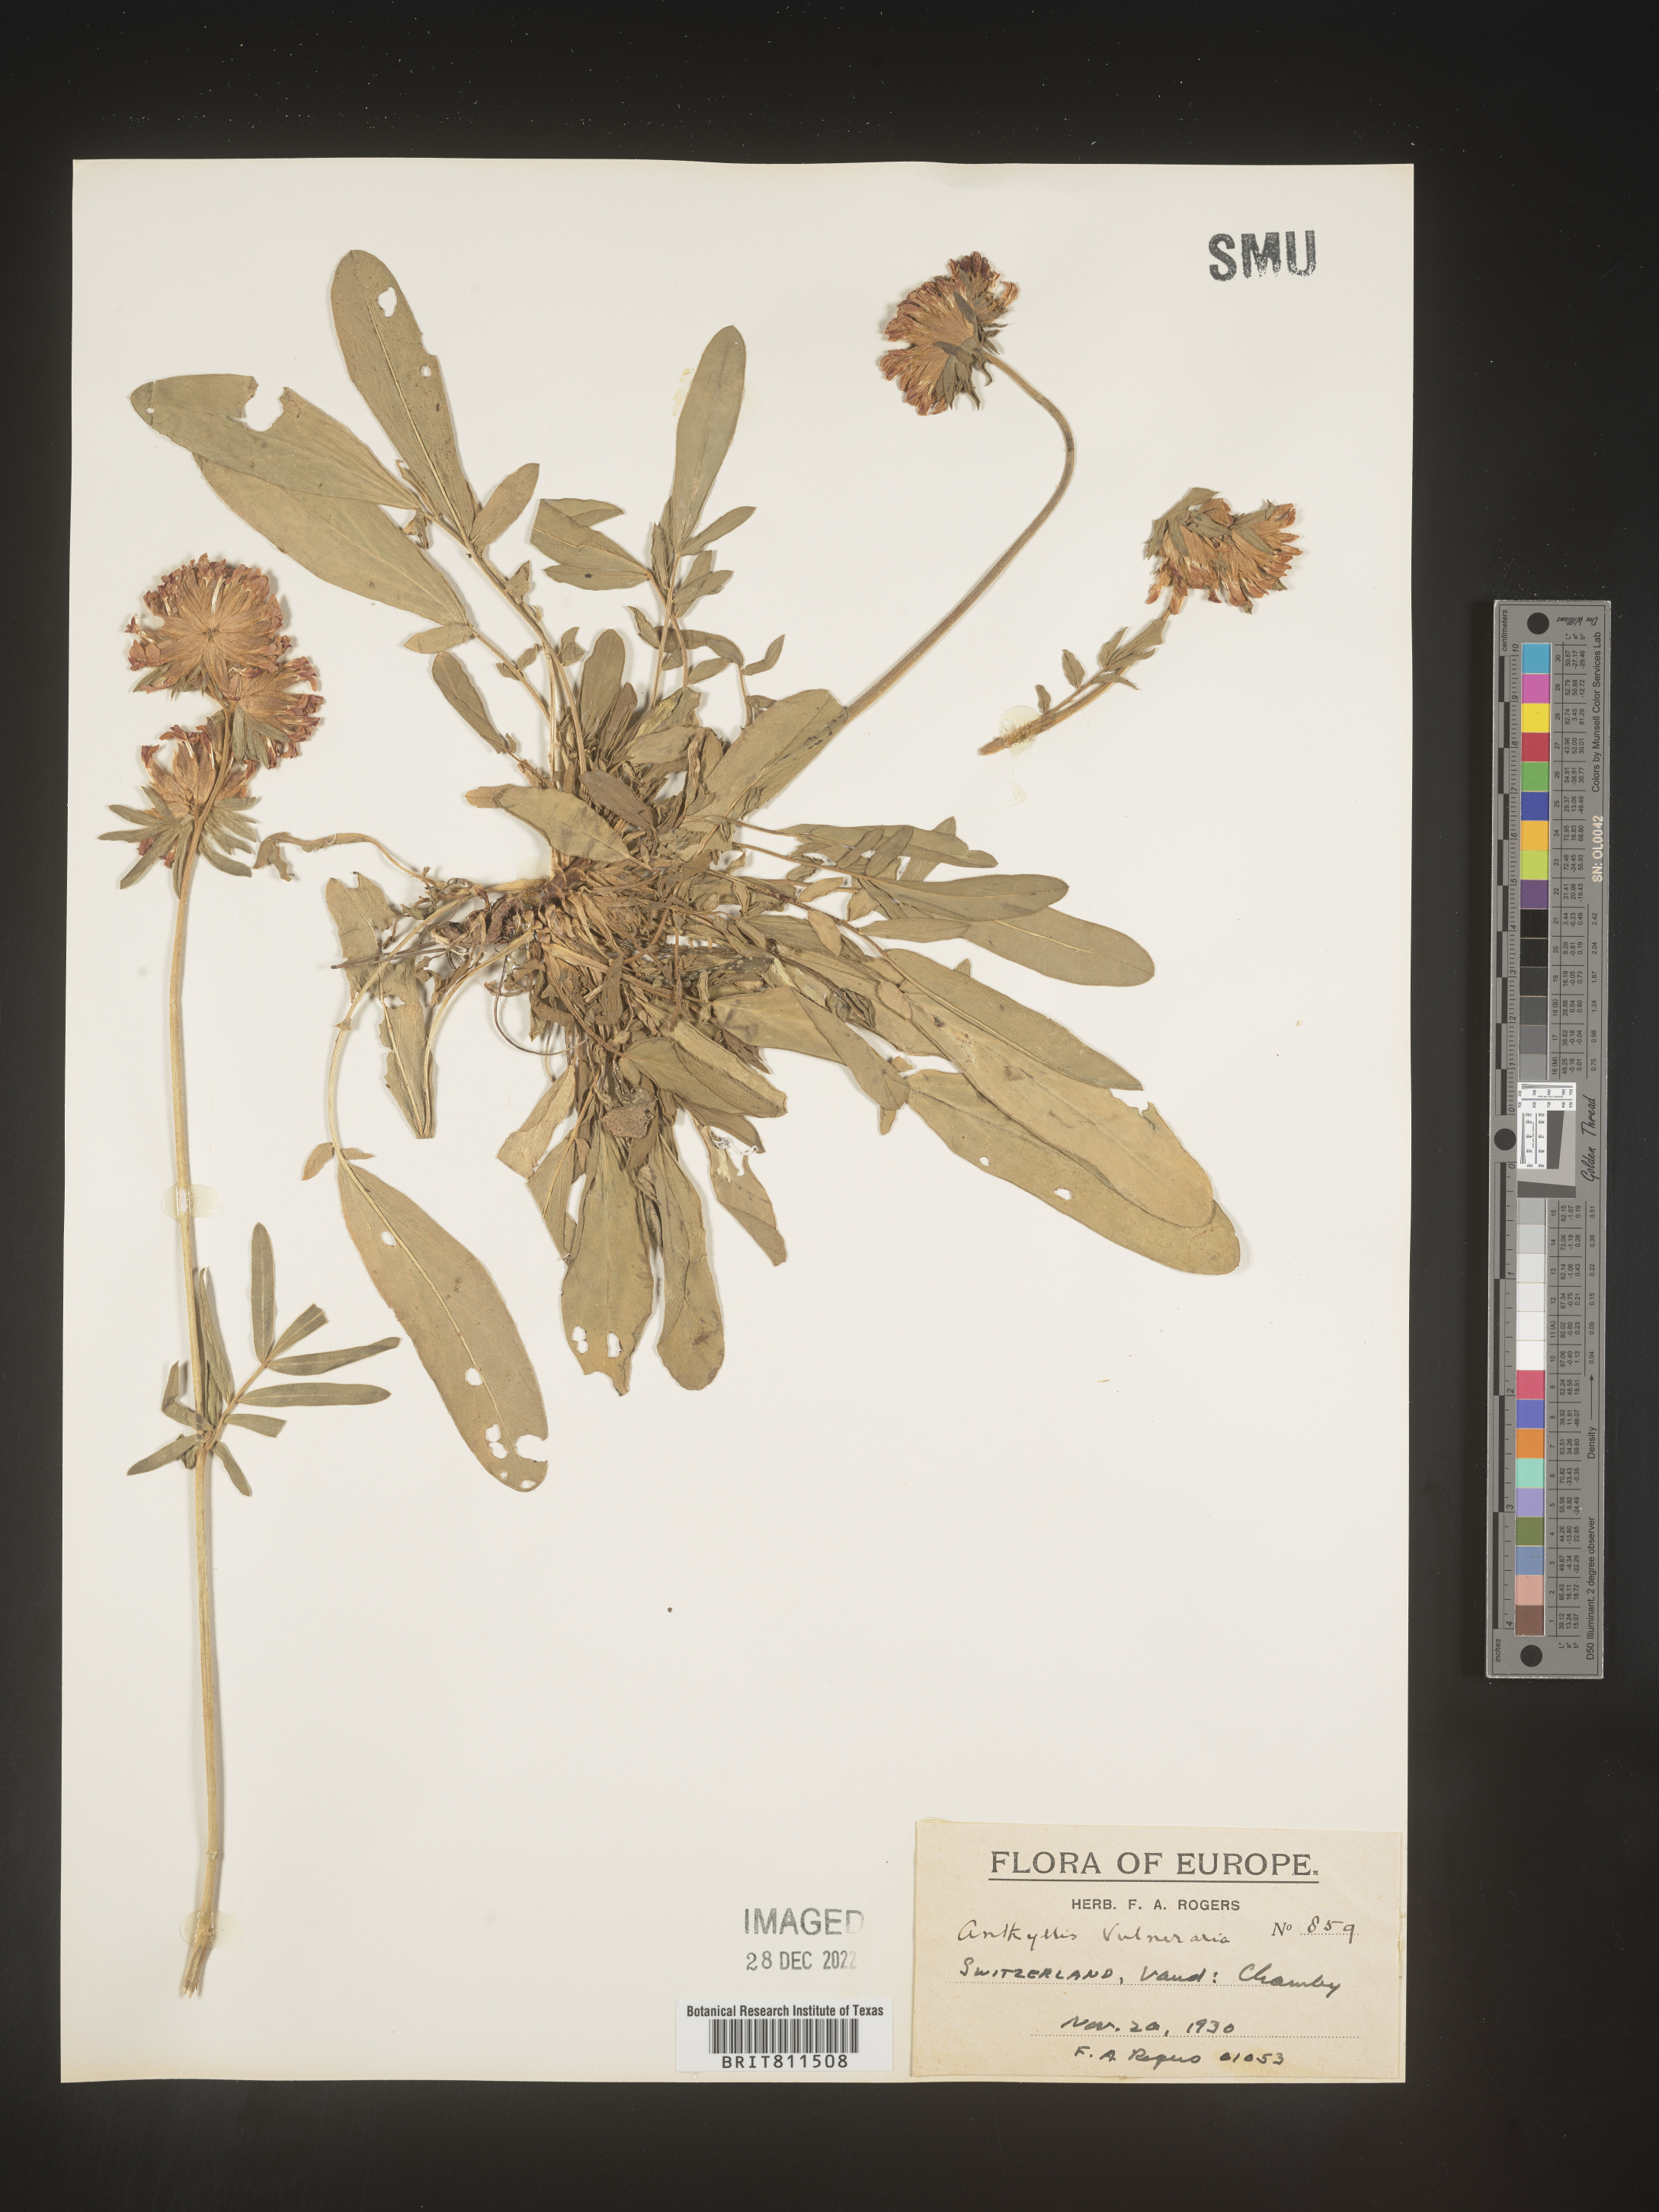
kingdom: Plantae
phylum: Tracheophyta
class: Magnoliopsida
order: Fabales
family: Fabaceae
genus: Anthyllis
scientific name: Anthyllis vulneraria
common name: Kidney vetch
